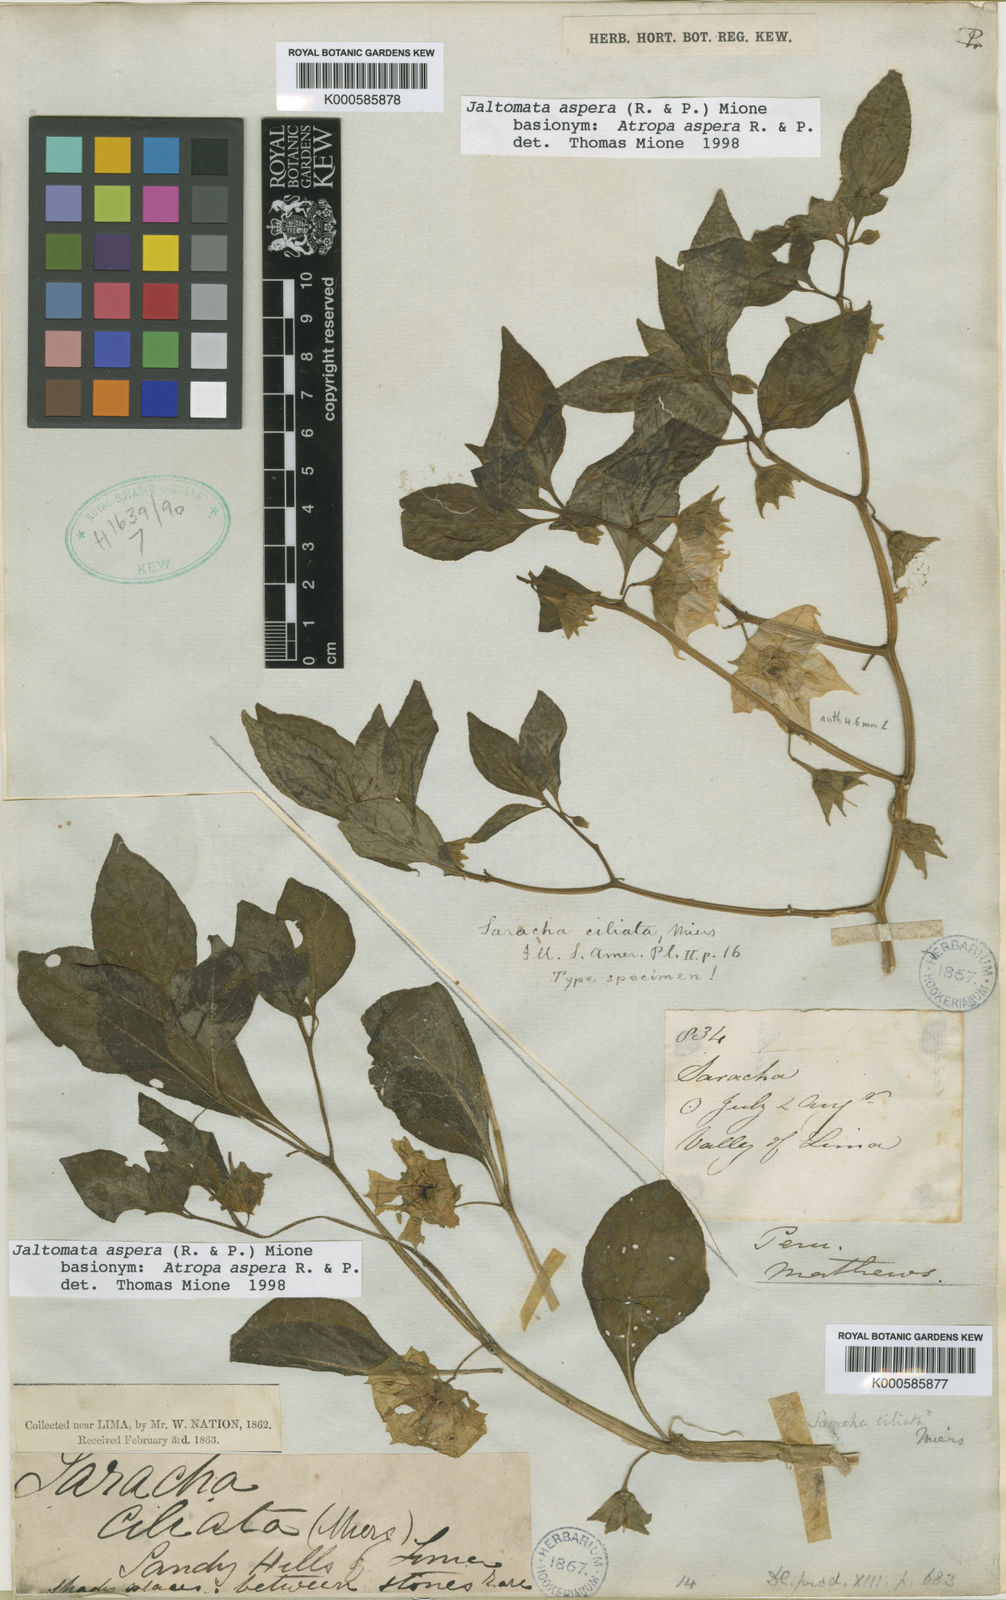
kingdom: Plantae
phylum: Tracheophyta
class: Magnoliopsida
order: Solanales
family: Solanaceae
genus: Jaltomata
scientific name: Jaltomata
